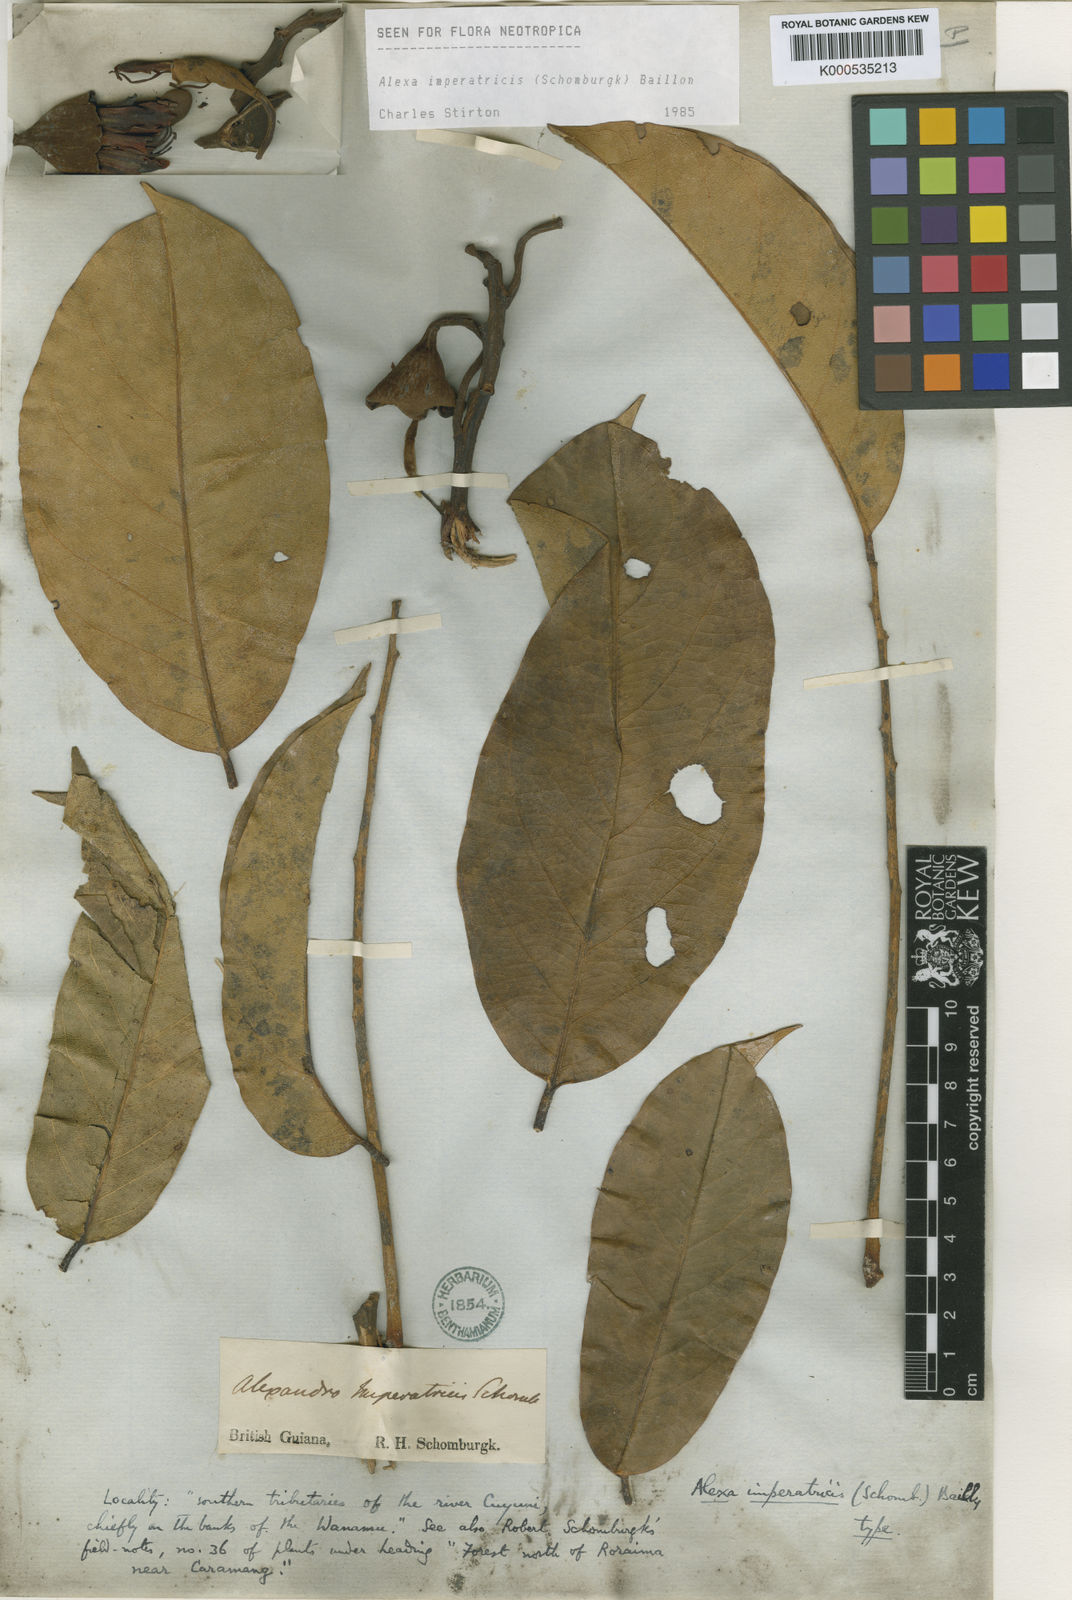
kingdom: Plantae
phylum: Tracheophyta
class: Magnoliopsida
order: Fabales
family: Fabaceae
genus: Alexa
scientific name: Alexa imperatricis
